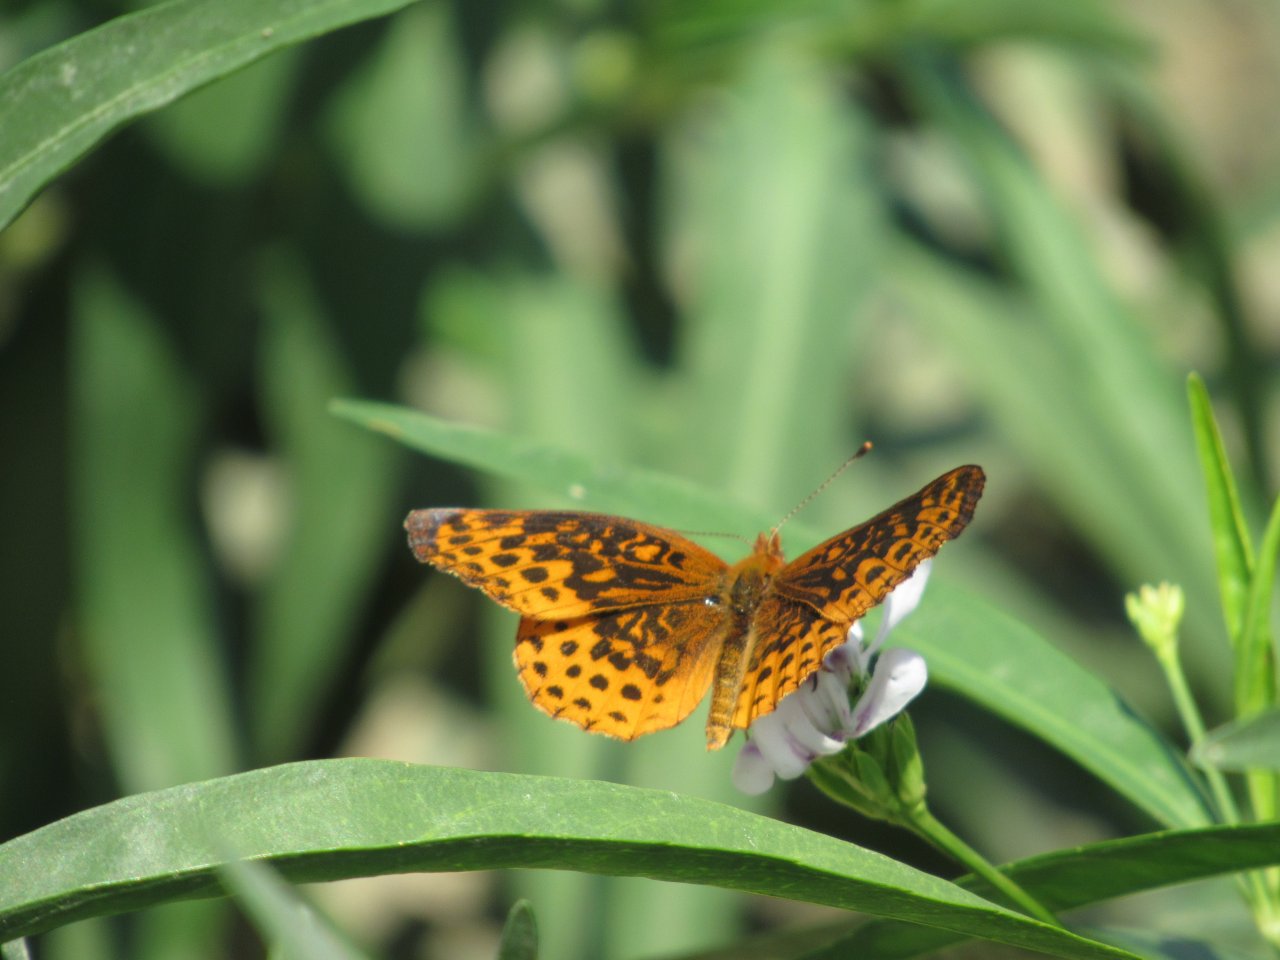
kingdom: Animalia
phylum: Arthropoda
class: Insecta
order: Lepidoptera
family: Nymphalidae
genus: Clossiana
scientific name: Clossiana toddi
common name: Meadow Fritillary
